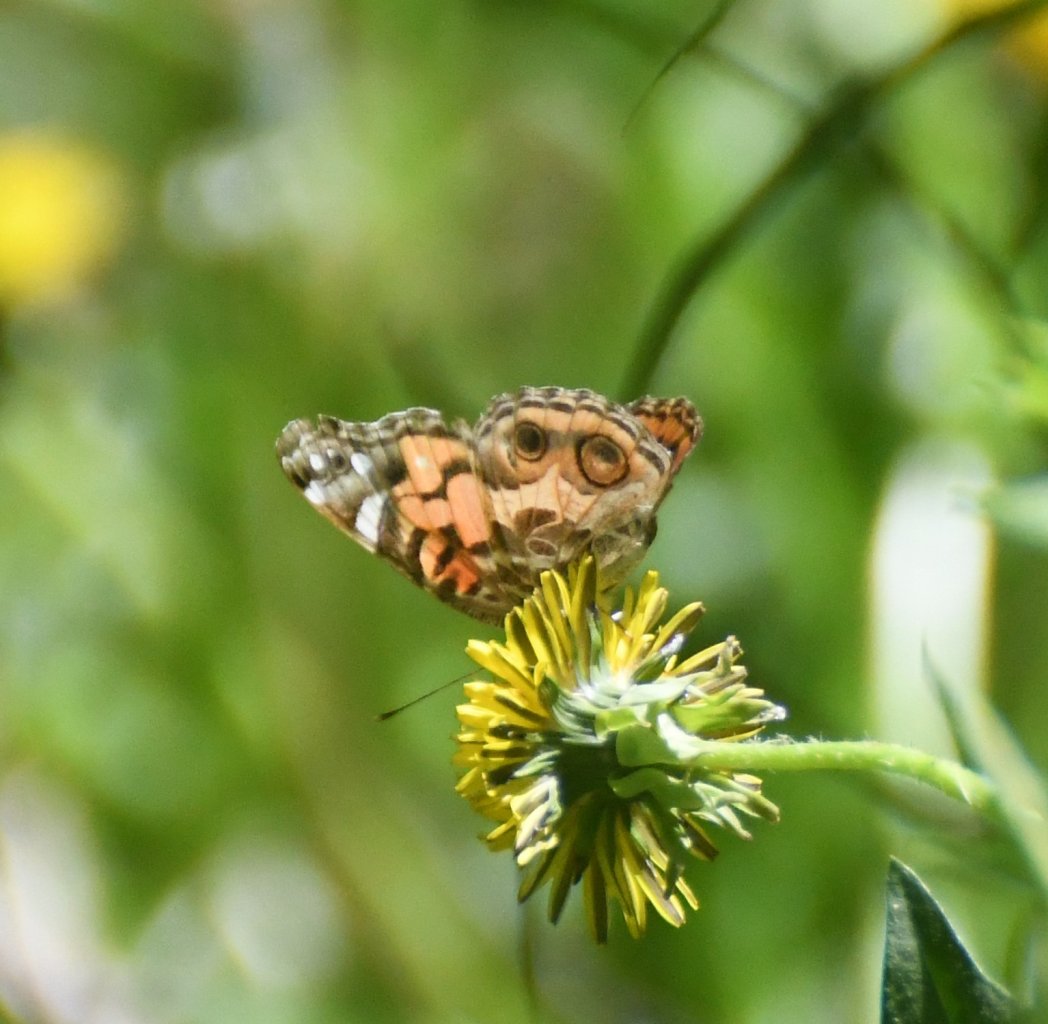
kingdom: Animalia
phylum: Arthropoda
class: Insecta
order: Lepidoptera
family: Nymphalidae
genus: Vanessa
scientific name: Vanessa virginiensis
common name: American Lady
